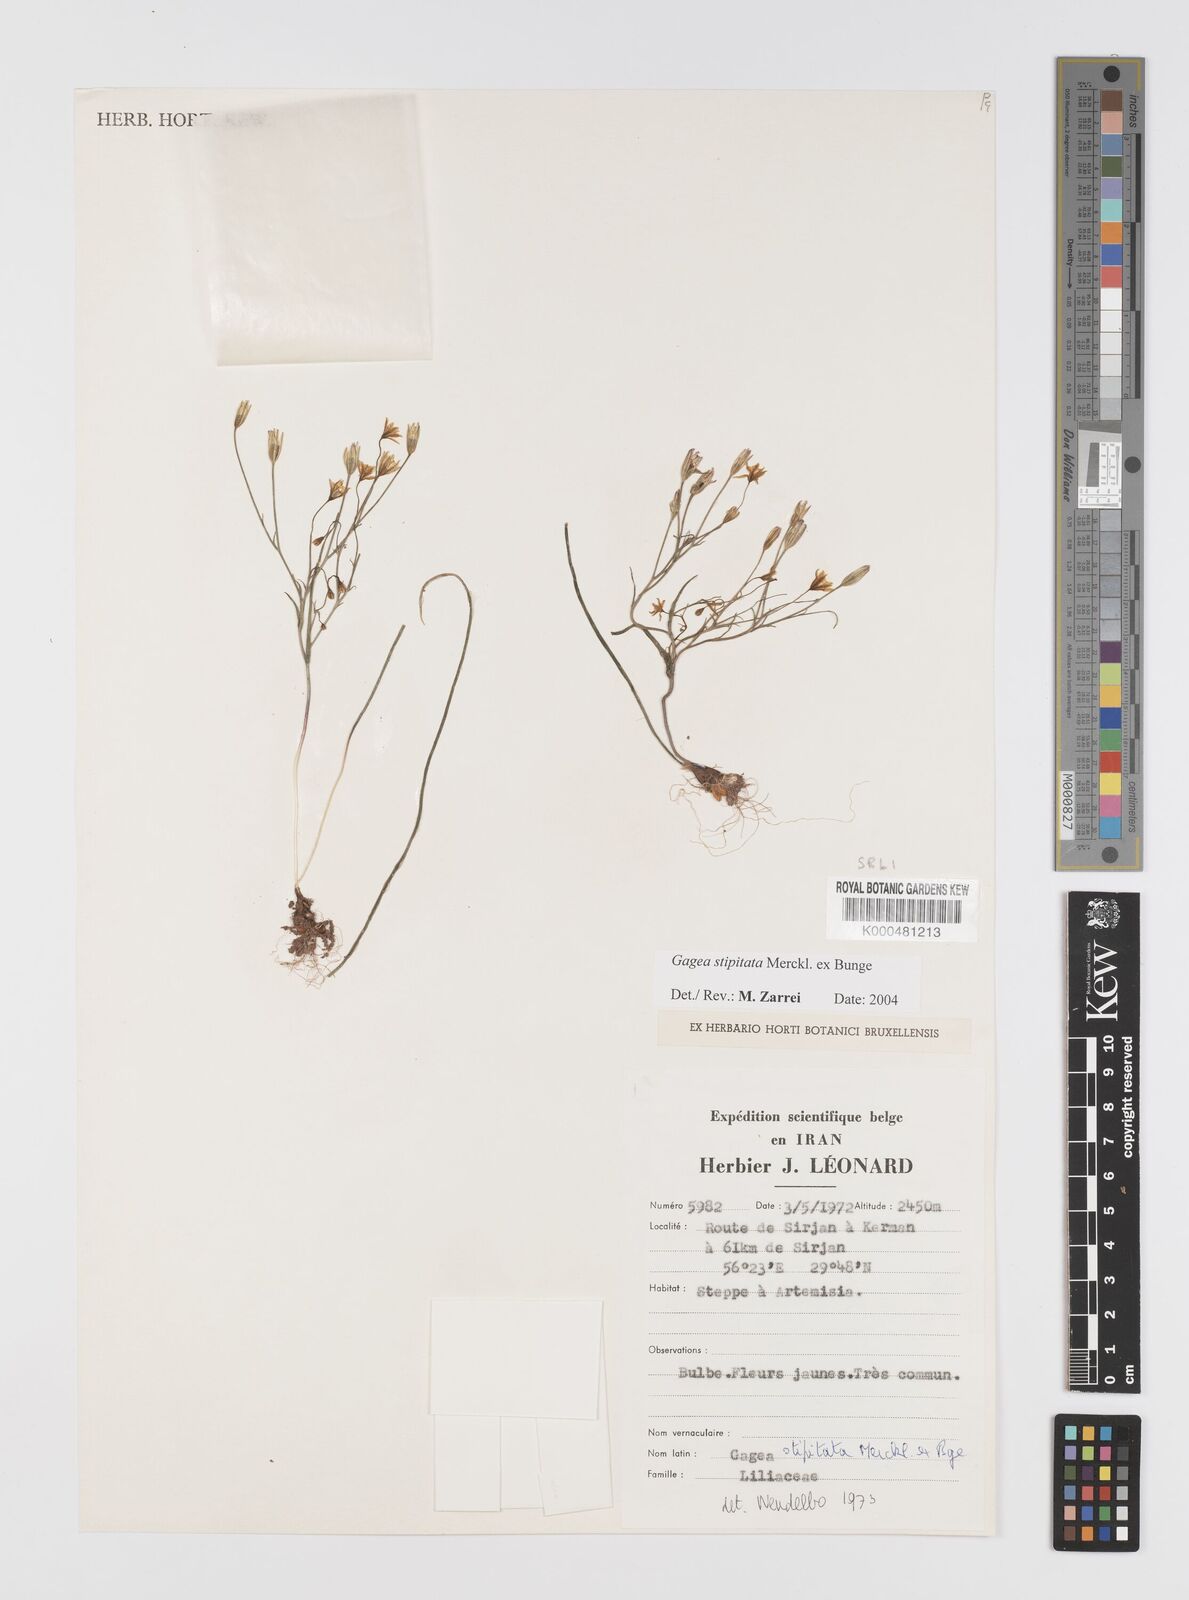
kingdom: Plantae
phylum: Tracheophyta
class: Liliopsida
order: Liliales
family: Liliaceae
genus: Gagea
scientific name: Gagea kunawurensis
